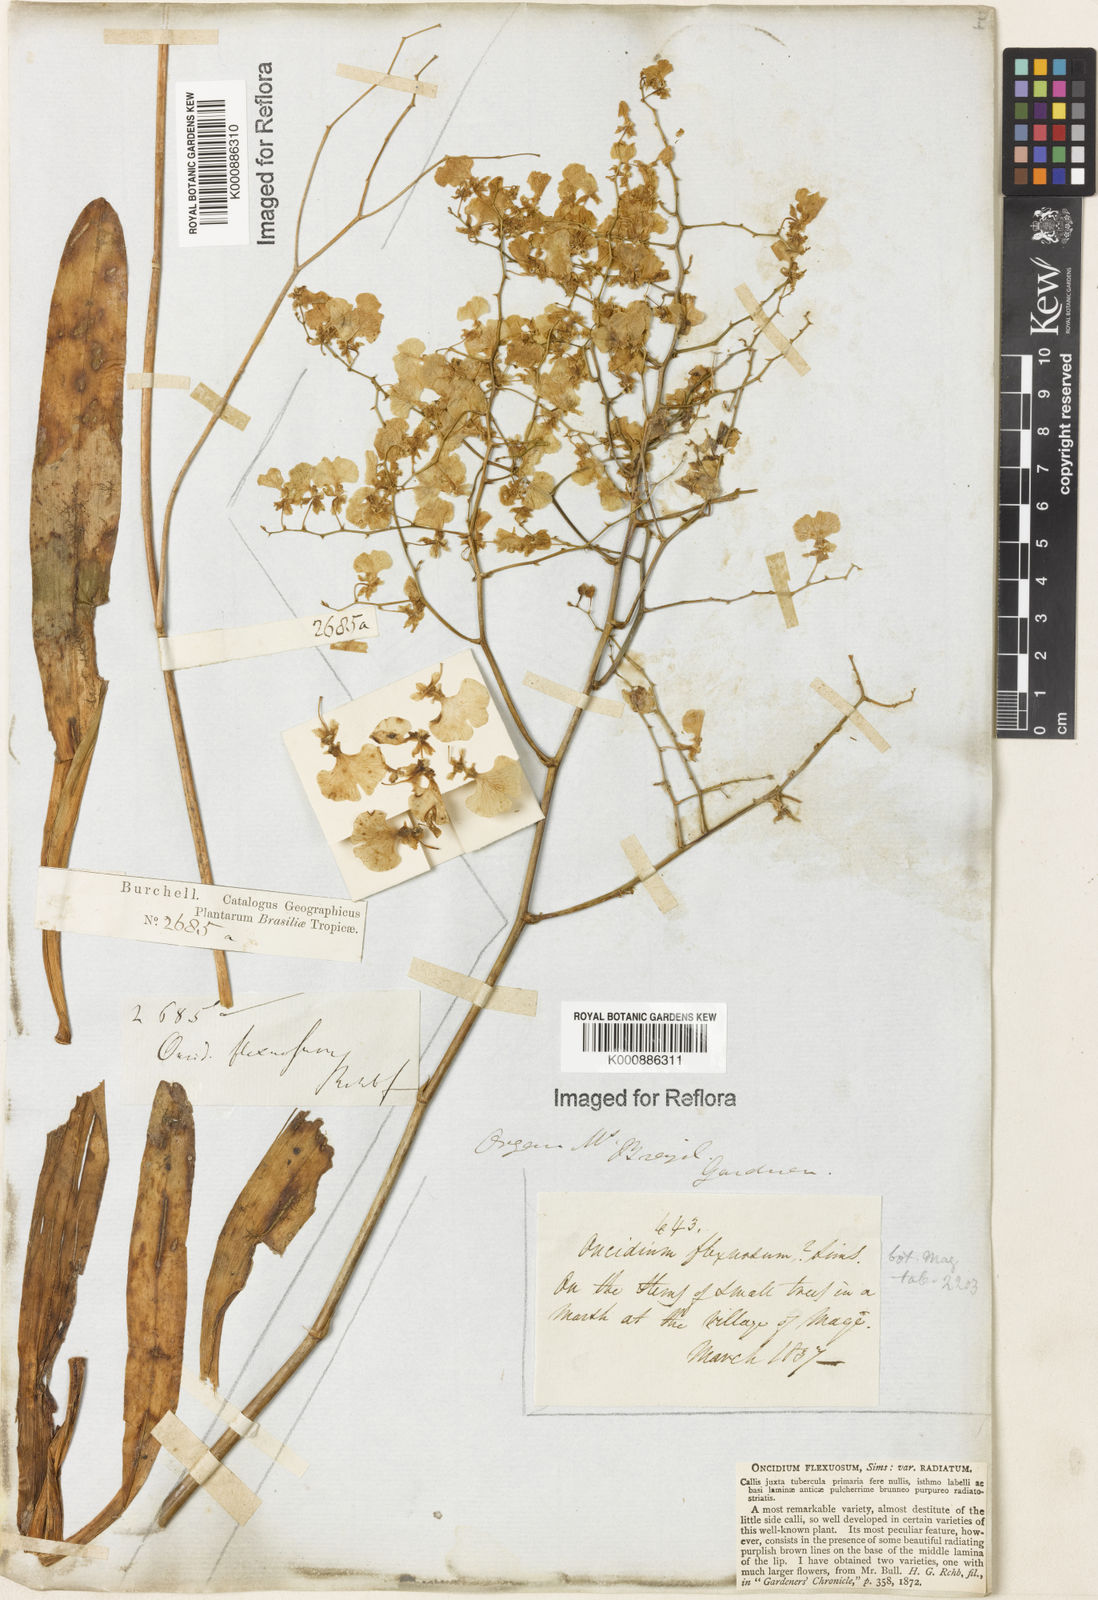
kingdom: Plantae
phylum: Tracheophyta
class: Liliopsida
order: Asparagales
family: Orchidaceae
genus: Gomesa
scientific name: Gomesa flexuosa
